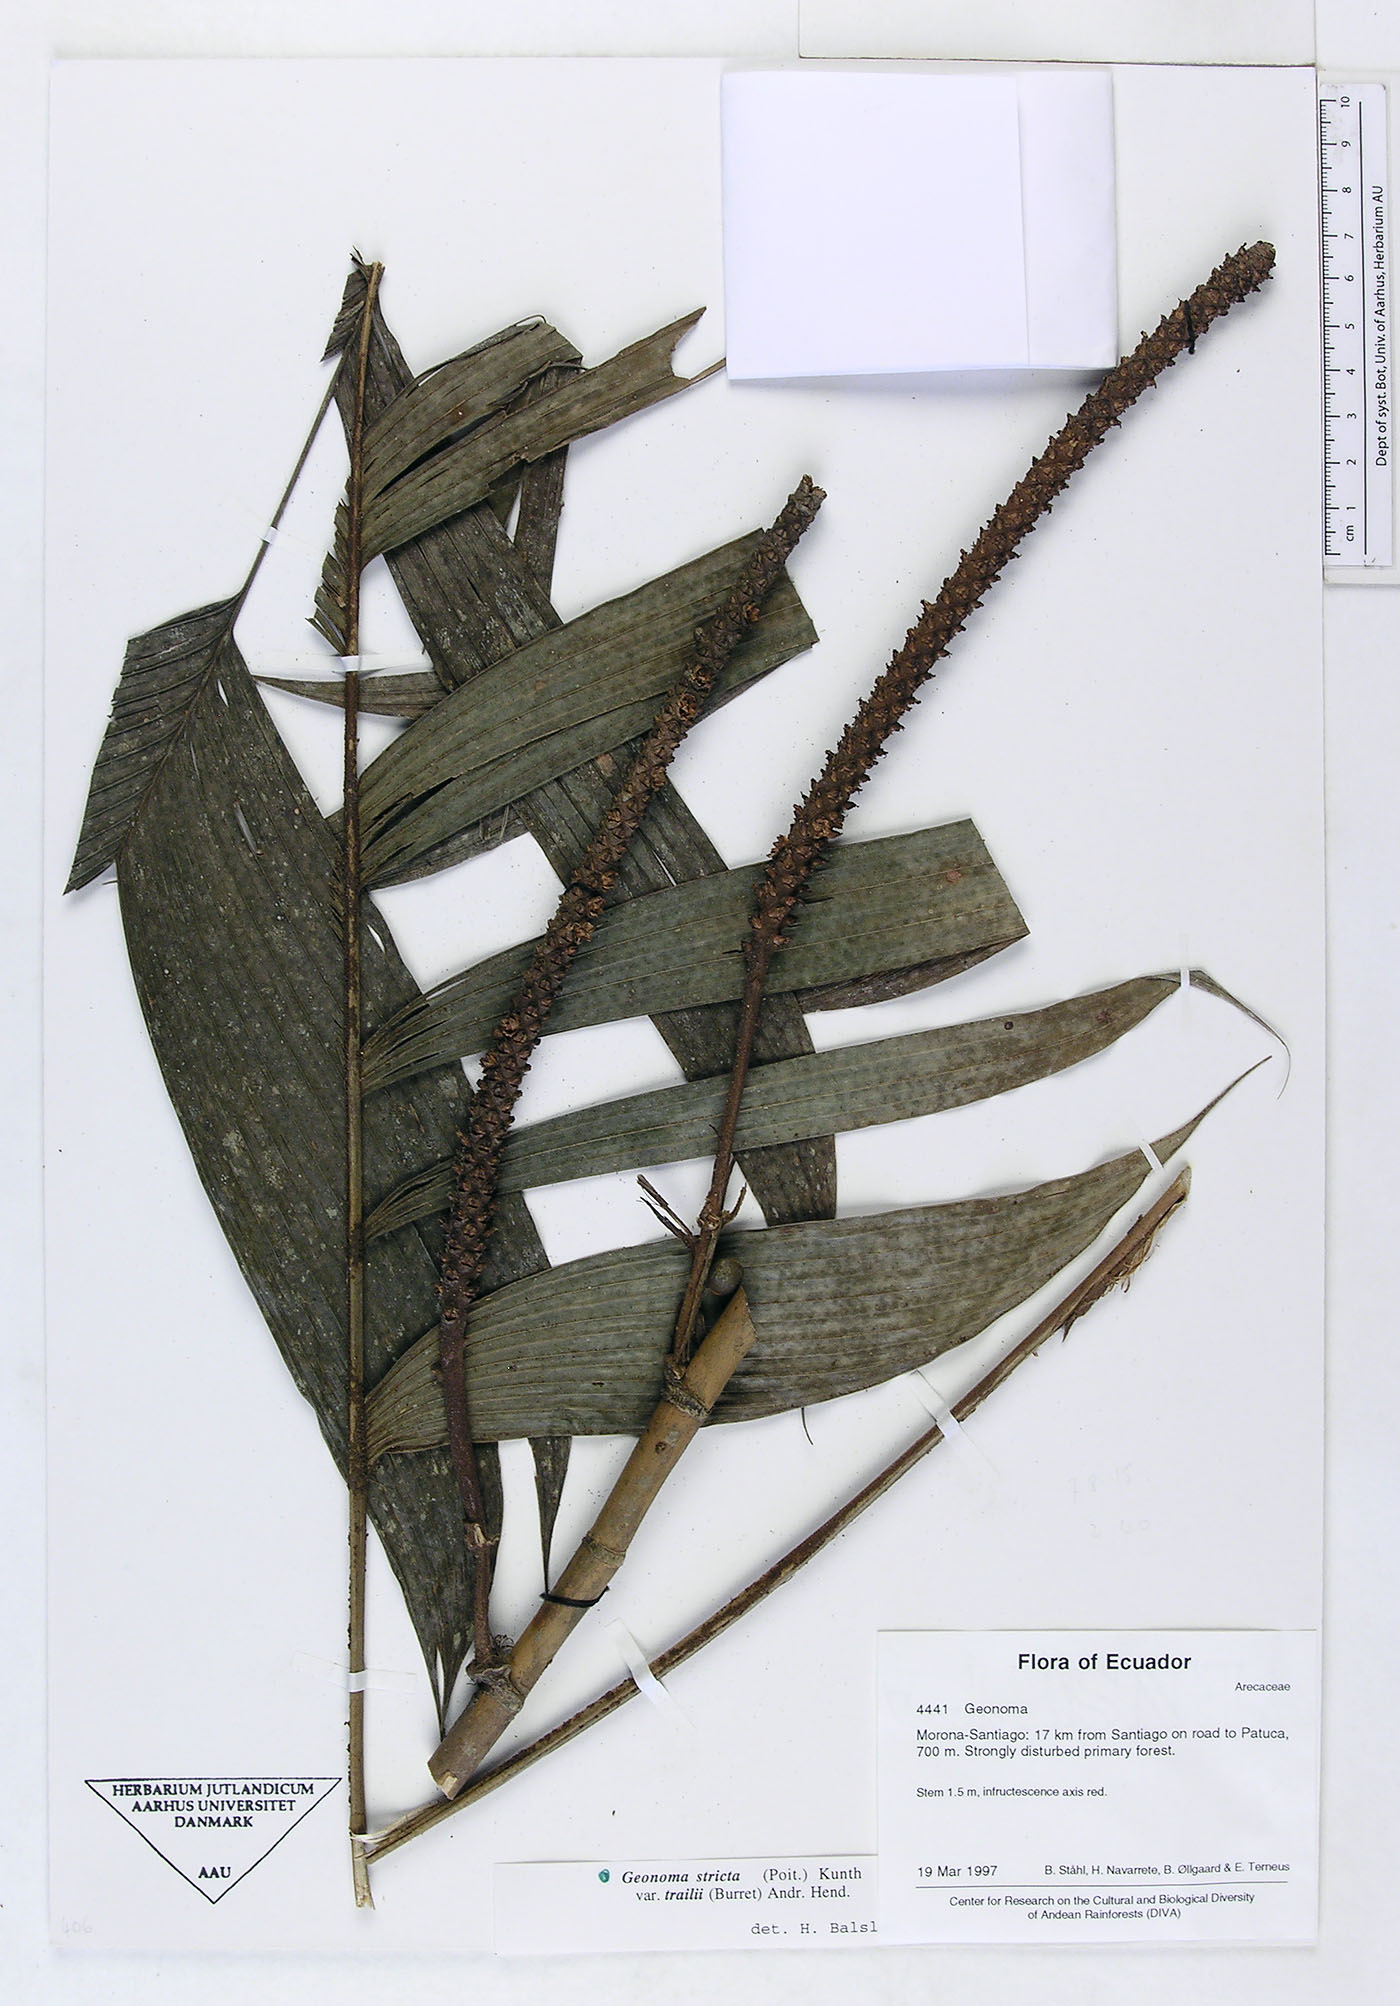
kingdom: Plantae
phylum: Tracheophyta
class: Liliopsida
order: Arecales
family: Arecaceae
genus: Geonoma
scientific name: Geonoma stricta
